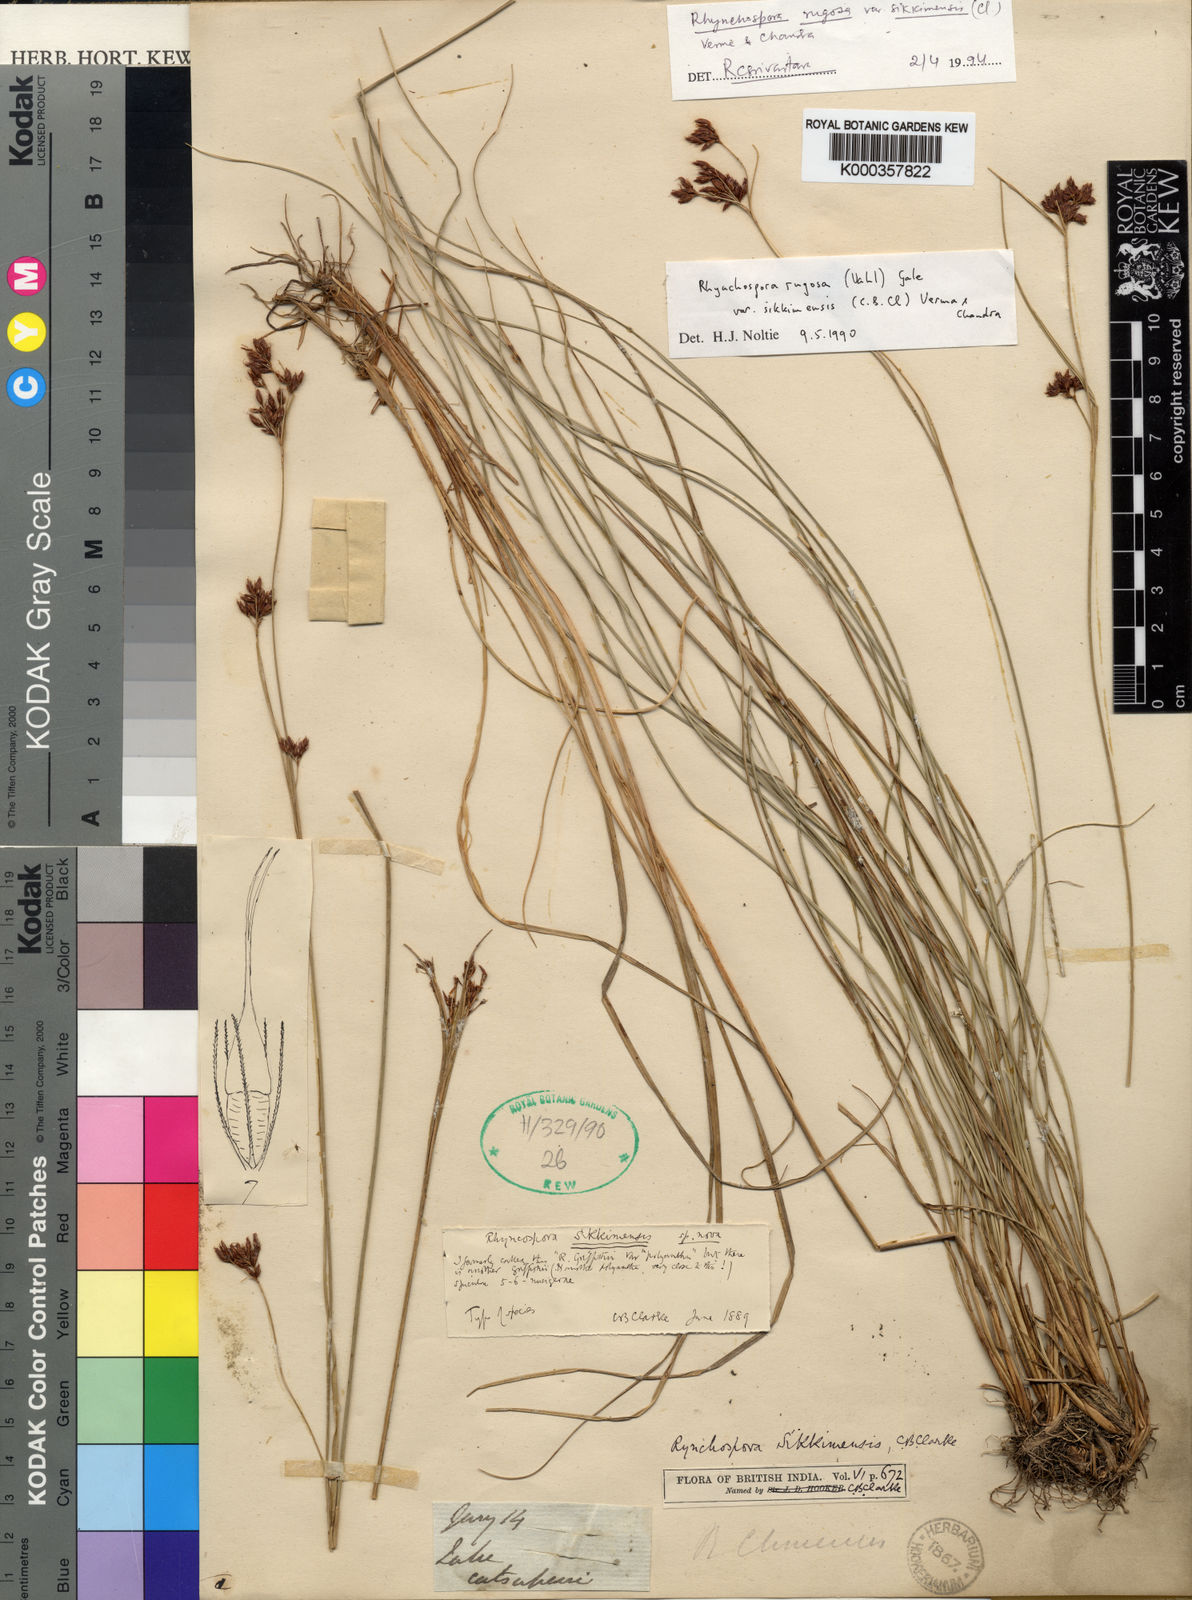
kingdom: Plantae
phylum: Tracheophyta
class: Liliopsida
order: Poales
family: Cyperaceae
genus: Eleocharis
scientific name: Eleocharis confervoides
